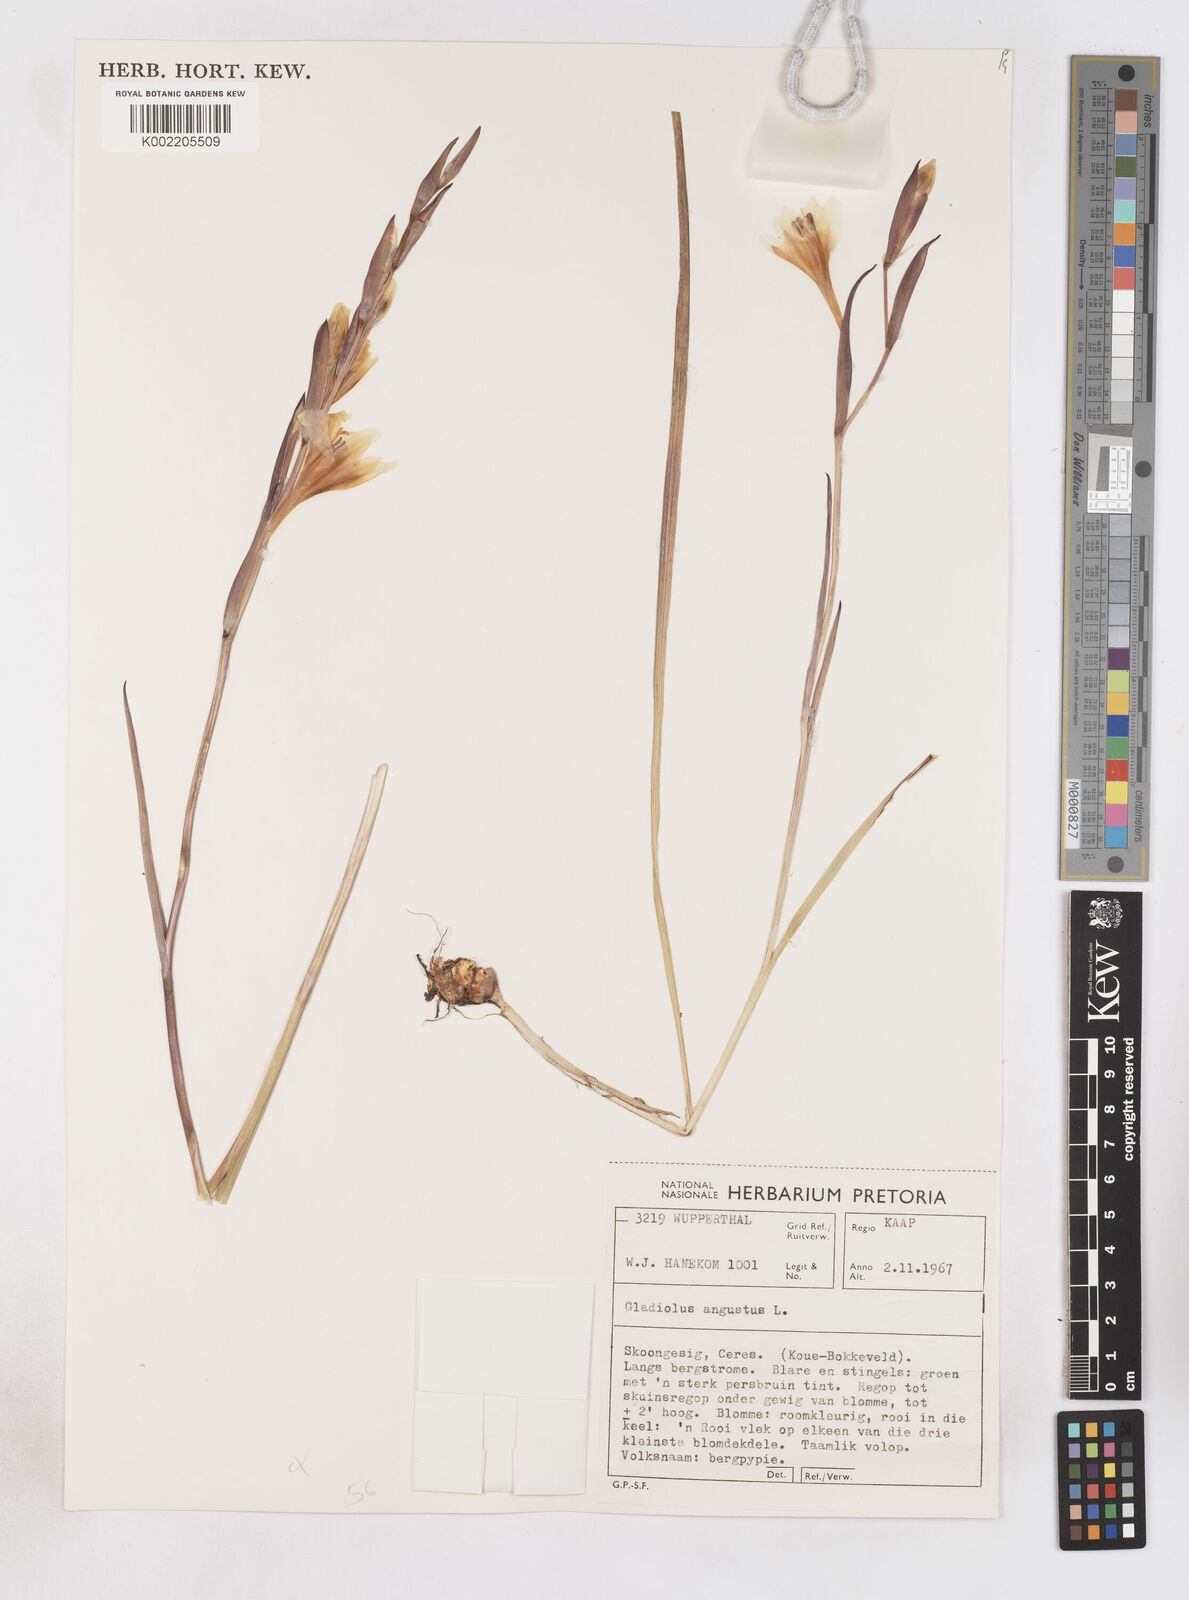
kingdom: Plantae
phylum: Tracheophyta
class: Liliopsida
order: Asparagales
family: Iridaceae
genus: Gladiolus
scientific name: Gladiolus angustus
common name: Painted-lady
